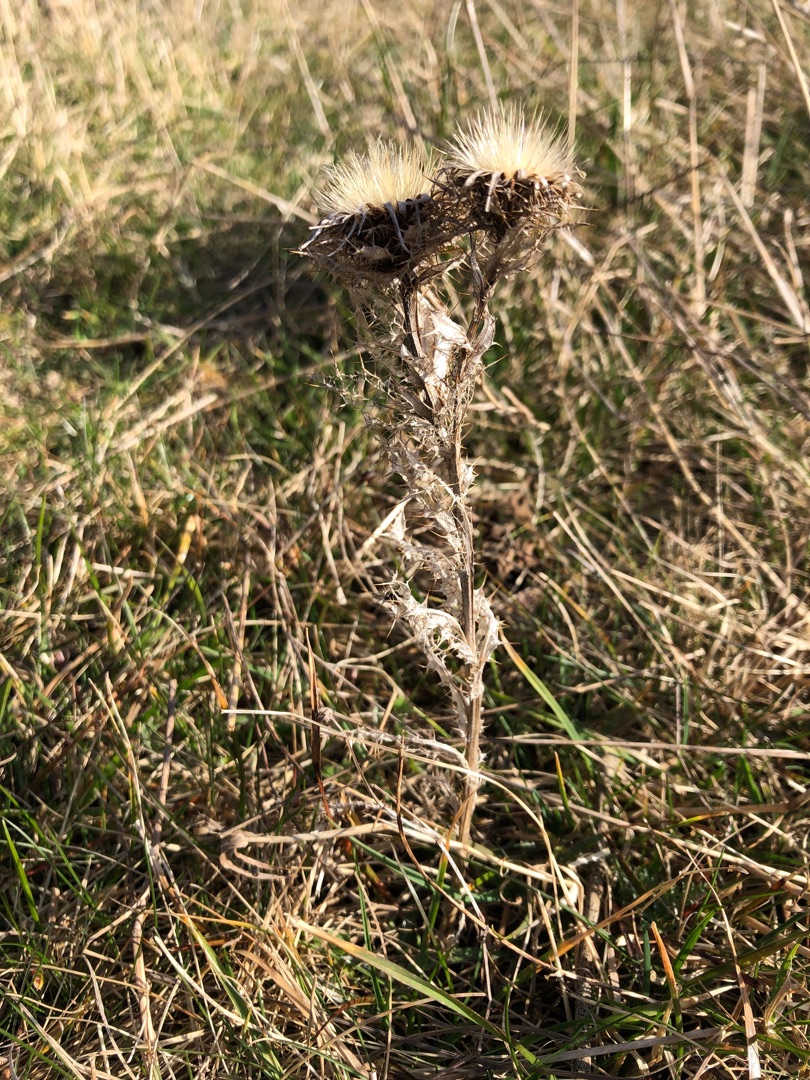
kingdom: Plantae
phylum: Tracheophyta
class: Magnoliopsida
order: Asterales
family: Asteraceae
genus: Carlina
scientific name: Carlina vulgaris
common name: Bakketidsel
